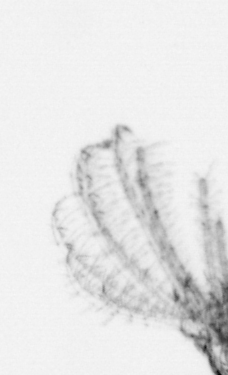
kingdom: Animalia
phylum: Arthropoda
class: Maxillopoda
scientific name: Maxillopoda
